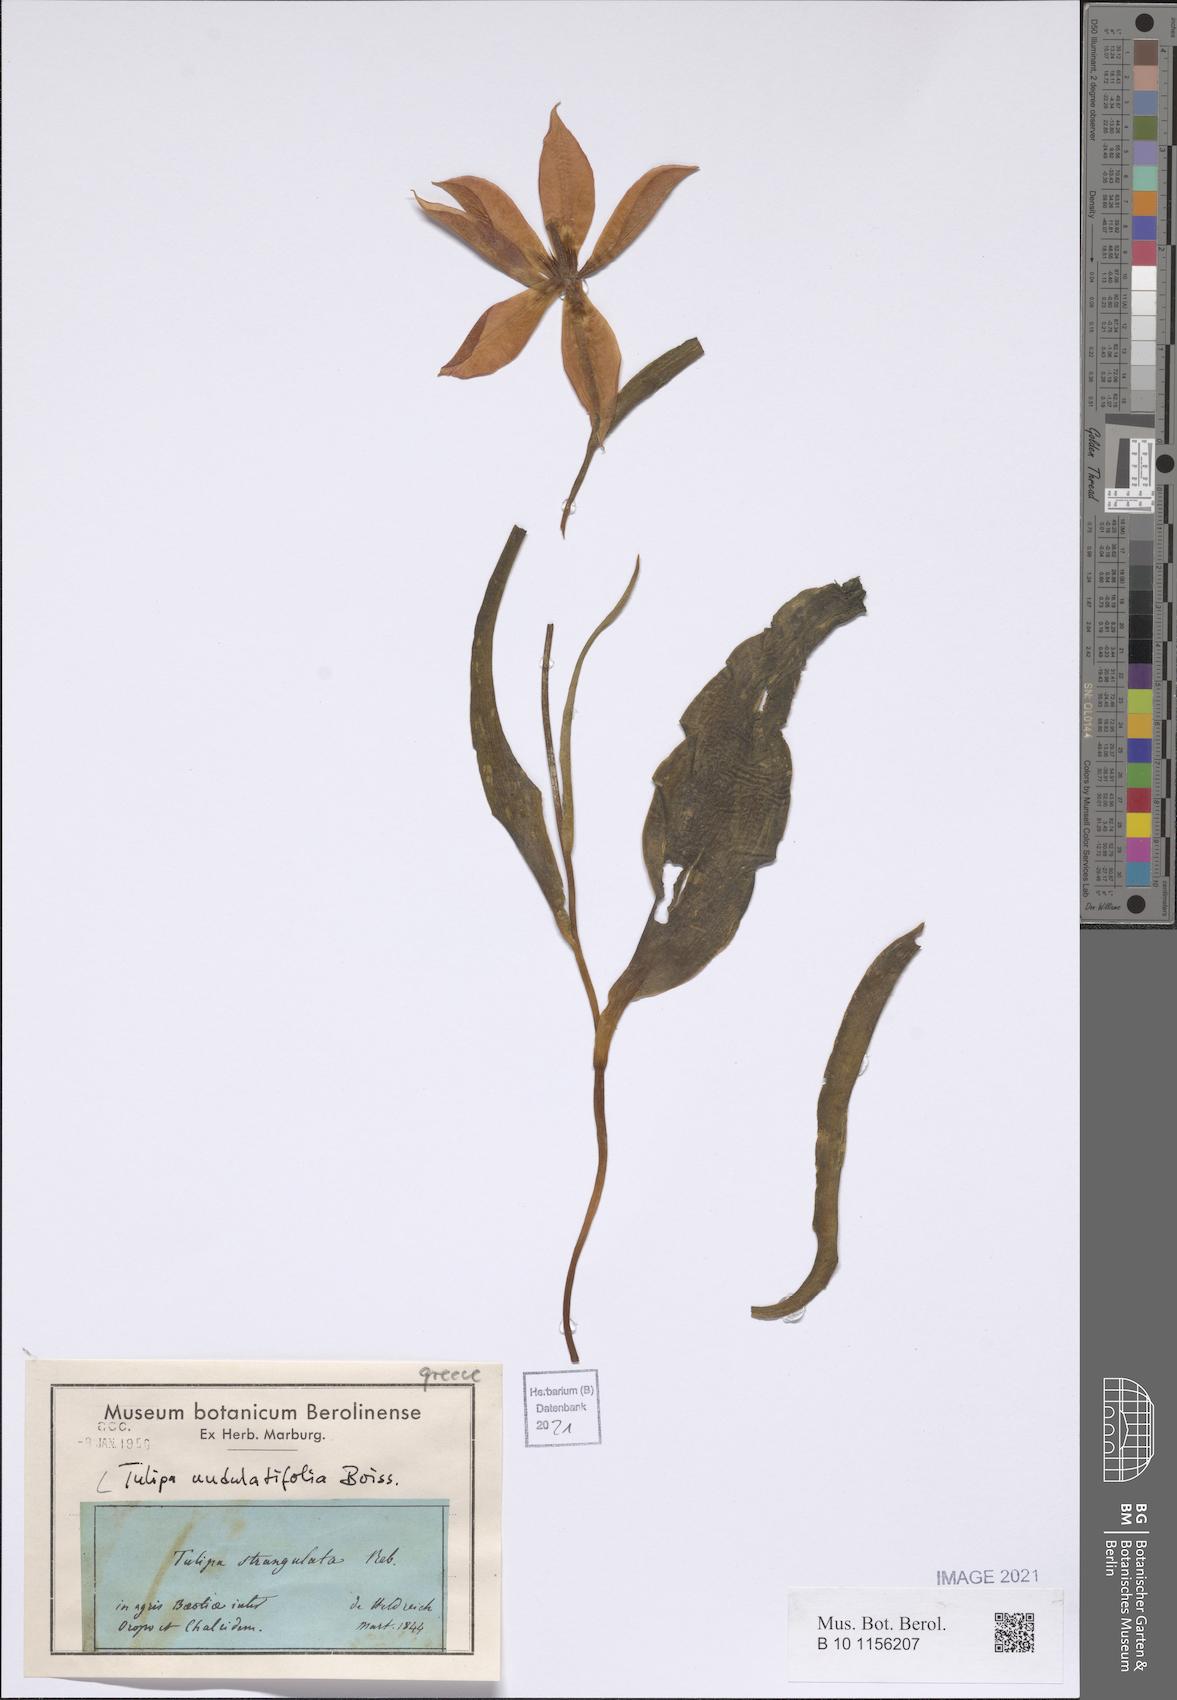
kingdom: Plantae
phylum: Tracheophyta
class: Liliopsida
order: Liliales
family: Liliaceae
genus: Tulipa
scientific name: Tulipa undulatifolia
